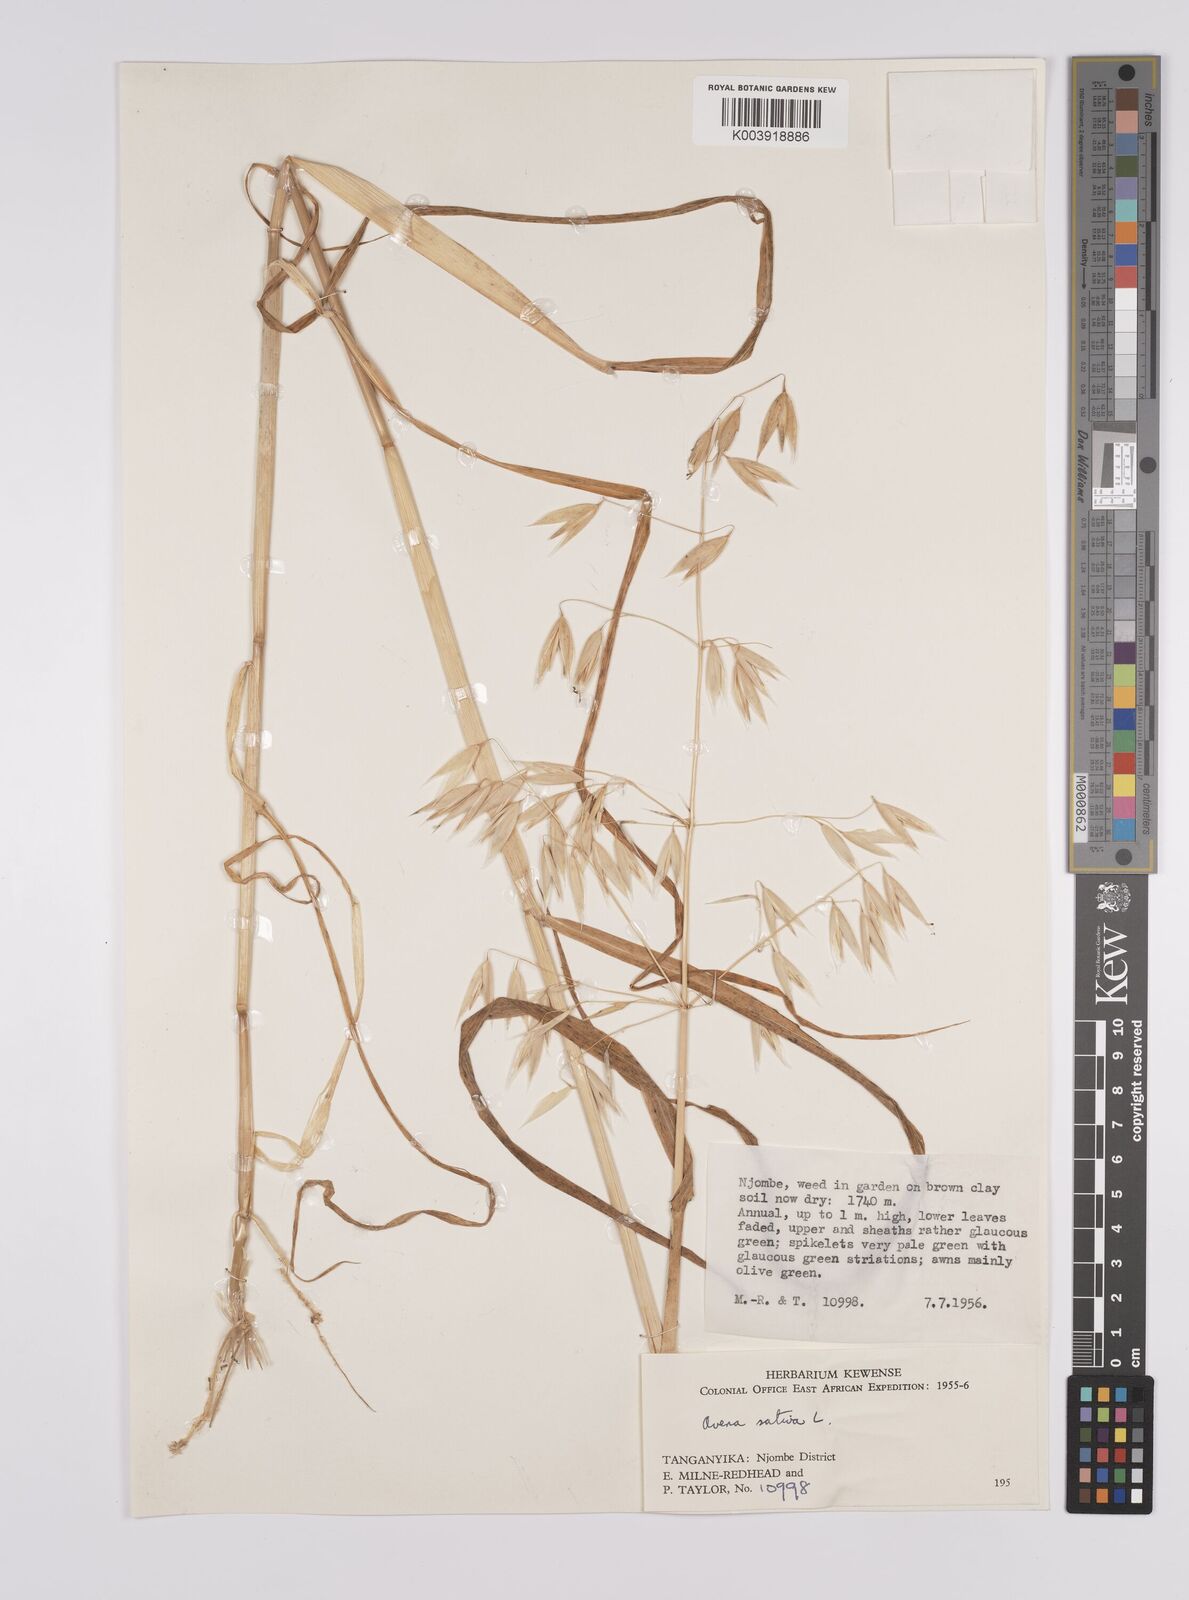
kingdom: Plantae
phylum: Tracheophyta
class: Liliopsida
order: Poales
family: Poaceae
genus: Avena
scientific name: Avena sterilis
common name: Animated oat
